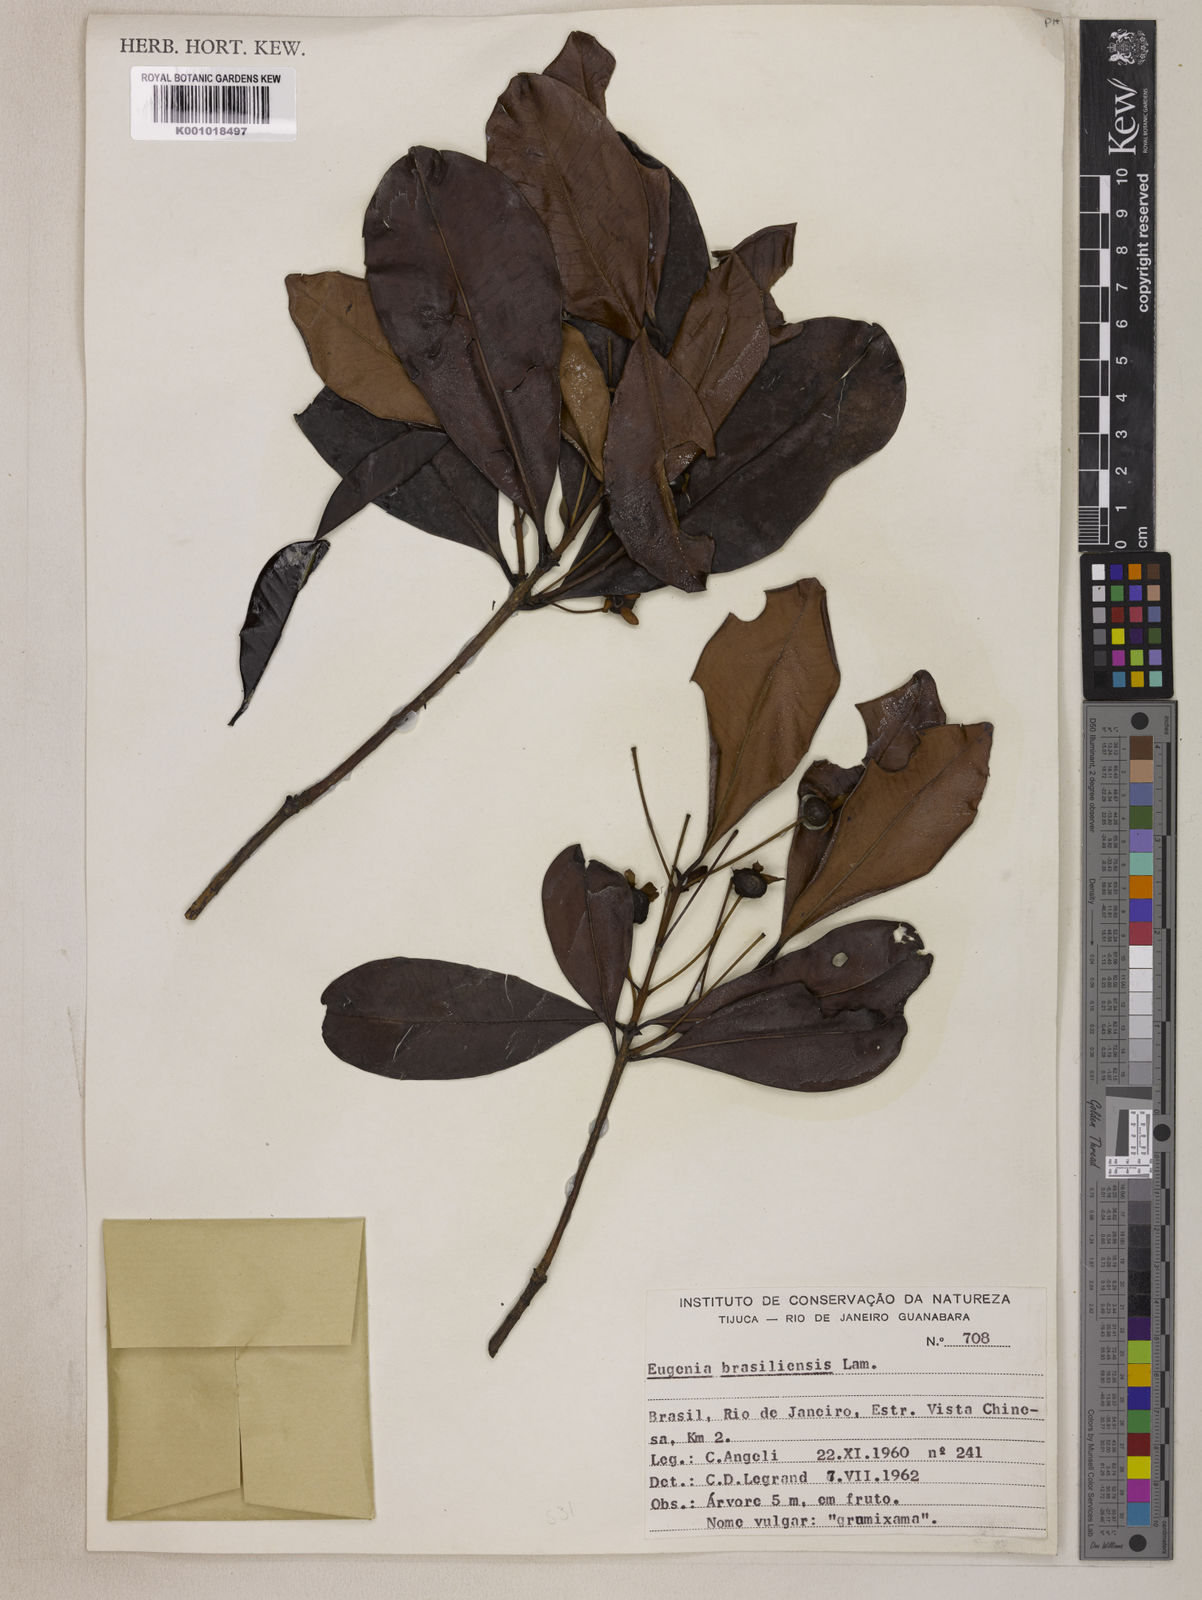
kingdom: Plantae
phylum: Tracheophyta
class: Magnoliopsida
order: Myrtales
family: Myrtaceae
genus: Eugenia
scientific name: Eugenia brasiliensis
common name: Grumichama
